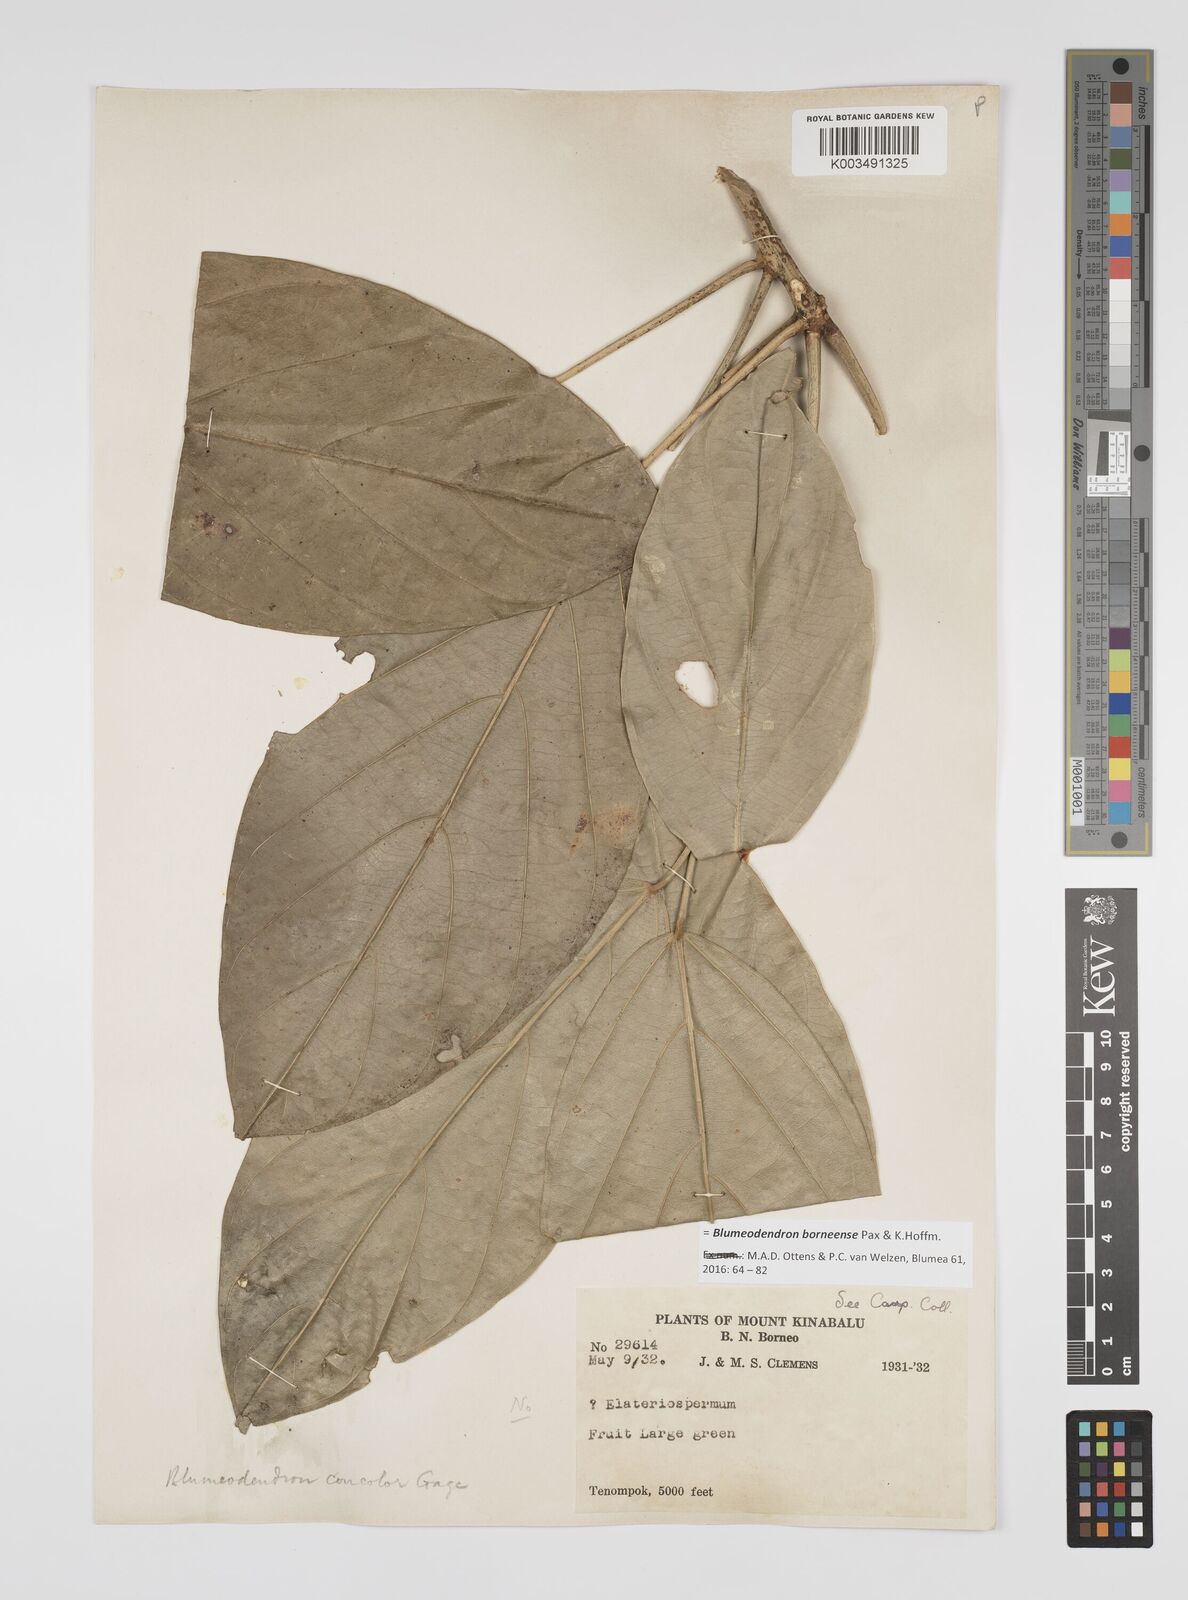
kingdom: Plantae
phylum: Tracheophyta
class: Magnoliopsida
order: Malpighiales
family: Euphorbiaceae
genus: Blumeodendron
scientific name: Blumeodendron borneense
